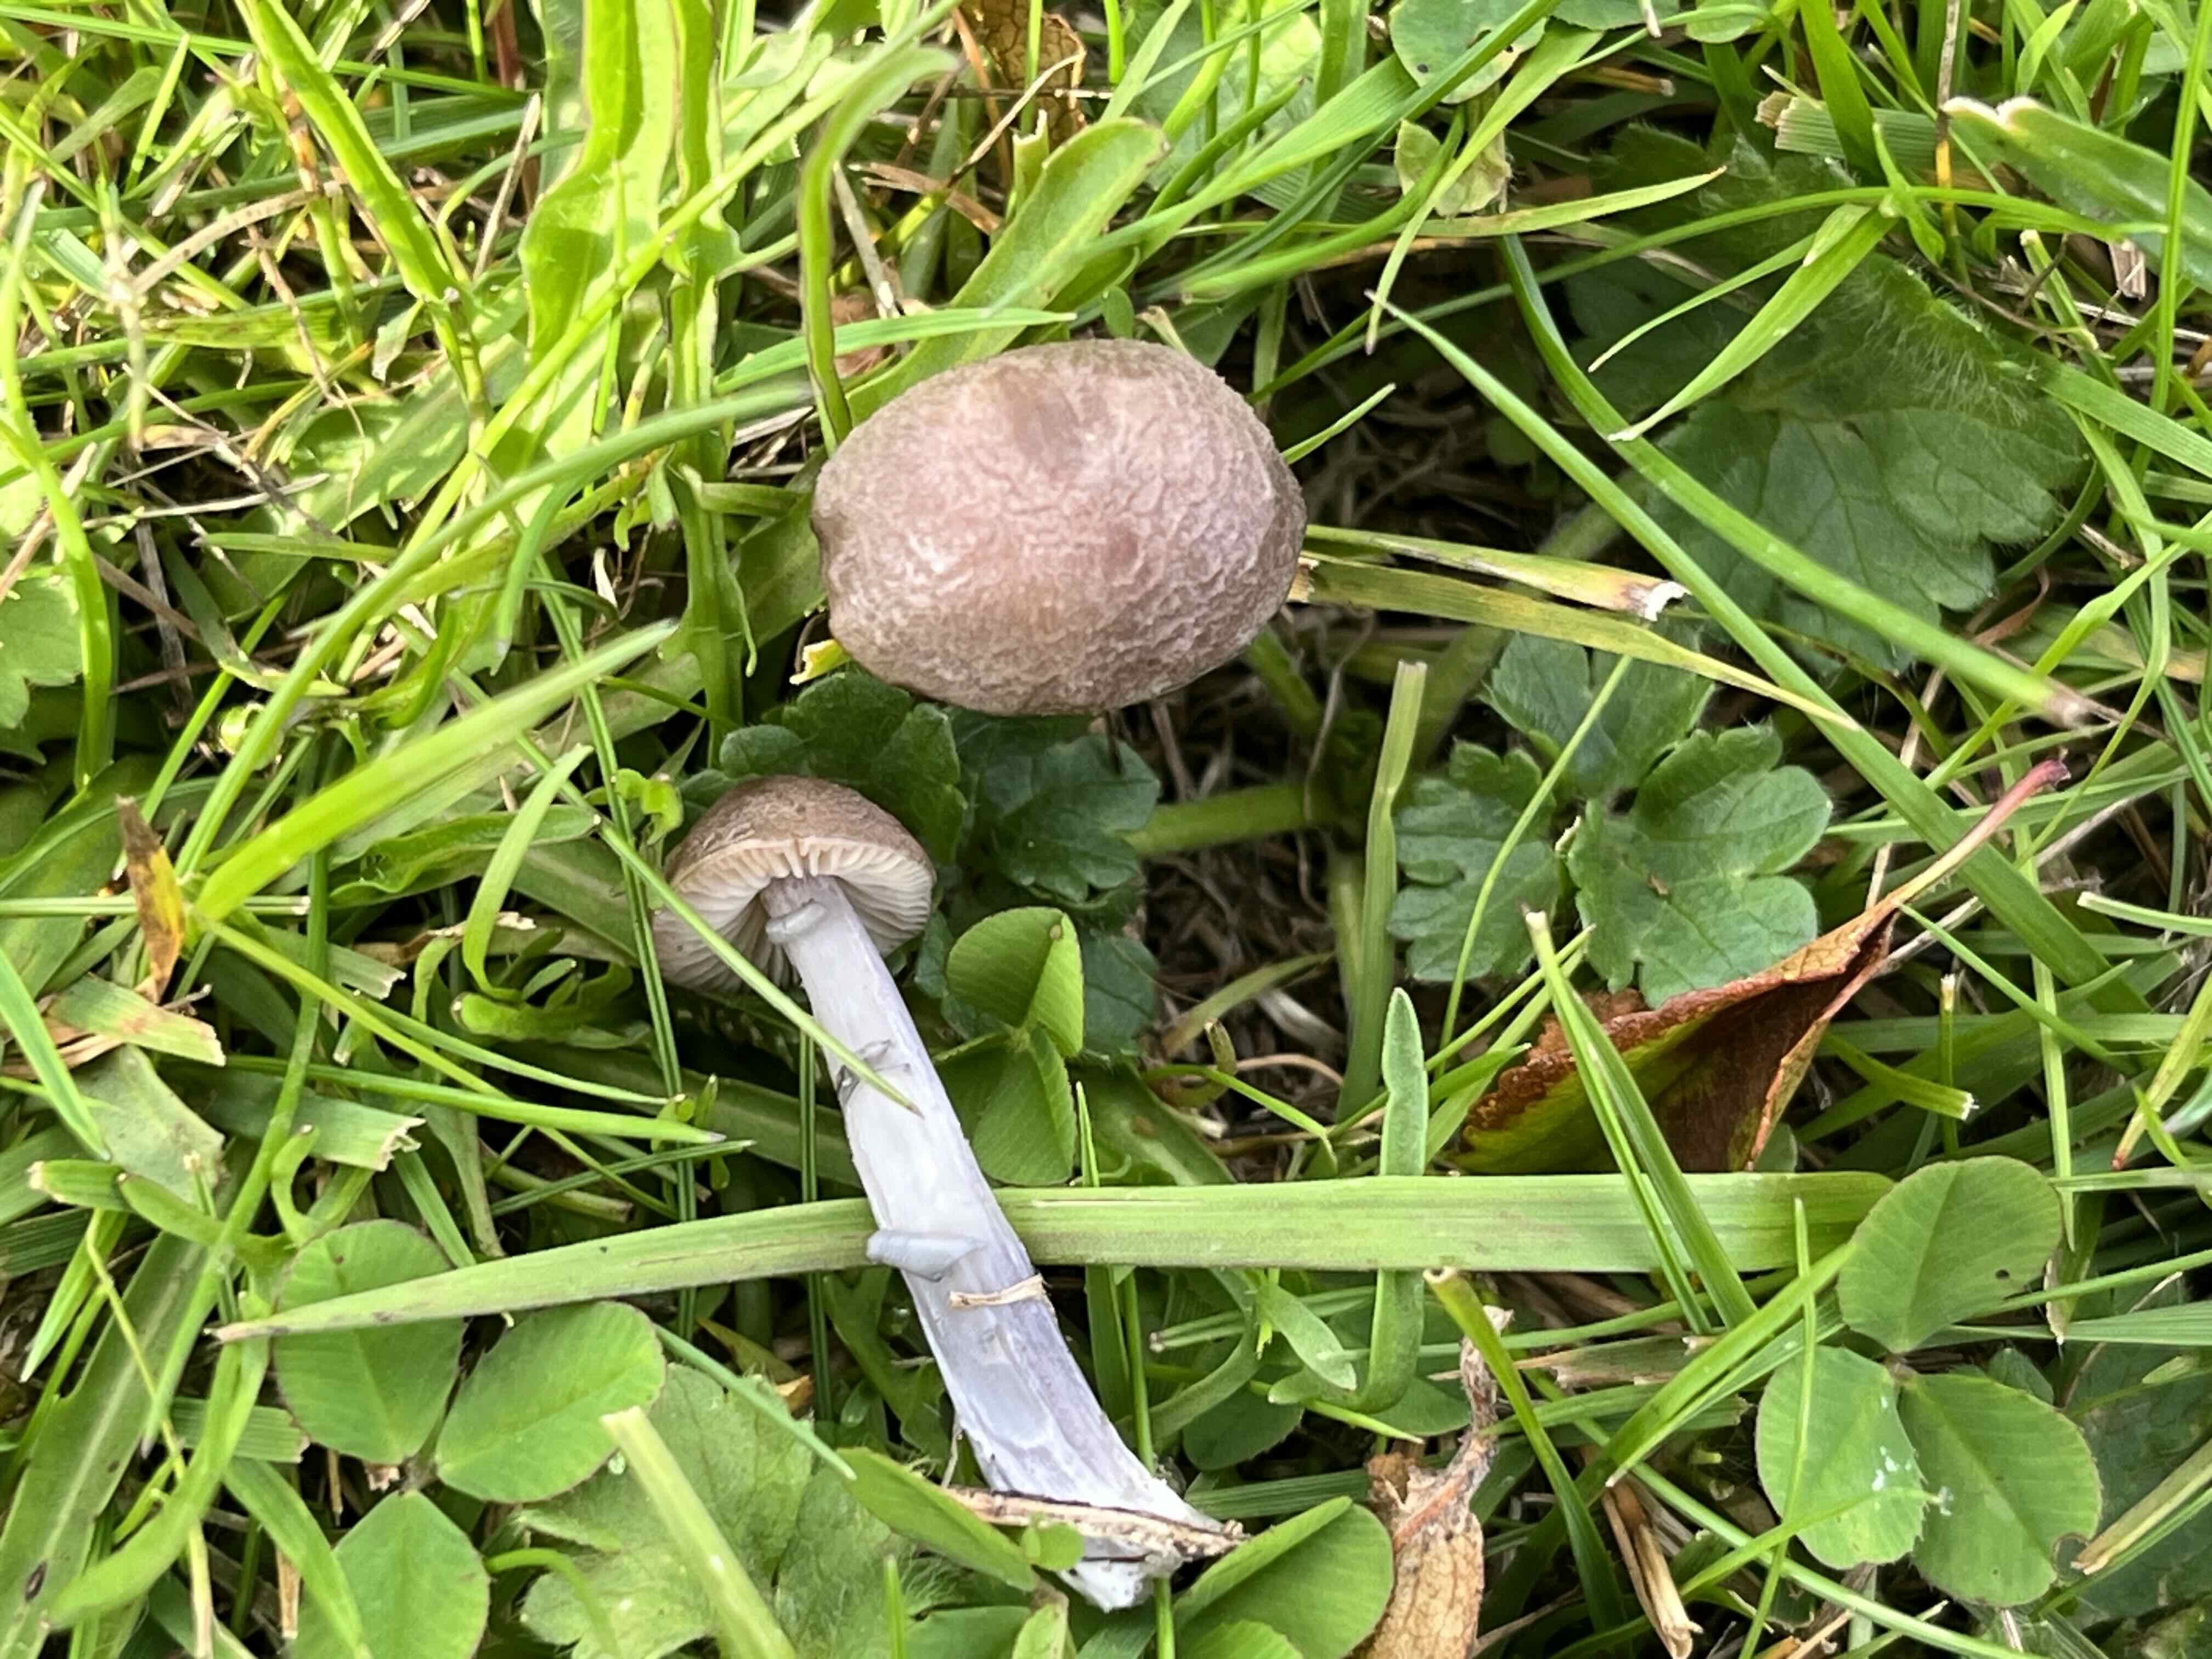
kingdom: Fungi
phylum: Basidiomycota
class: Agaricomycetes
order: Agaricales
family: Entolomataceae
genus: Entoloma
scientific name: Entoloma griseocyaneum
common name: gråblå rødblad
